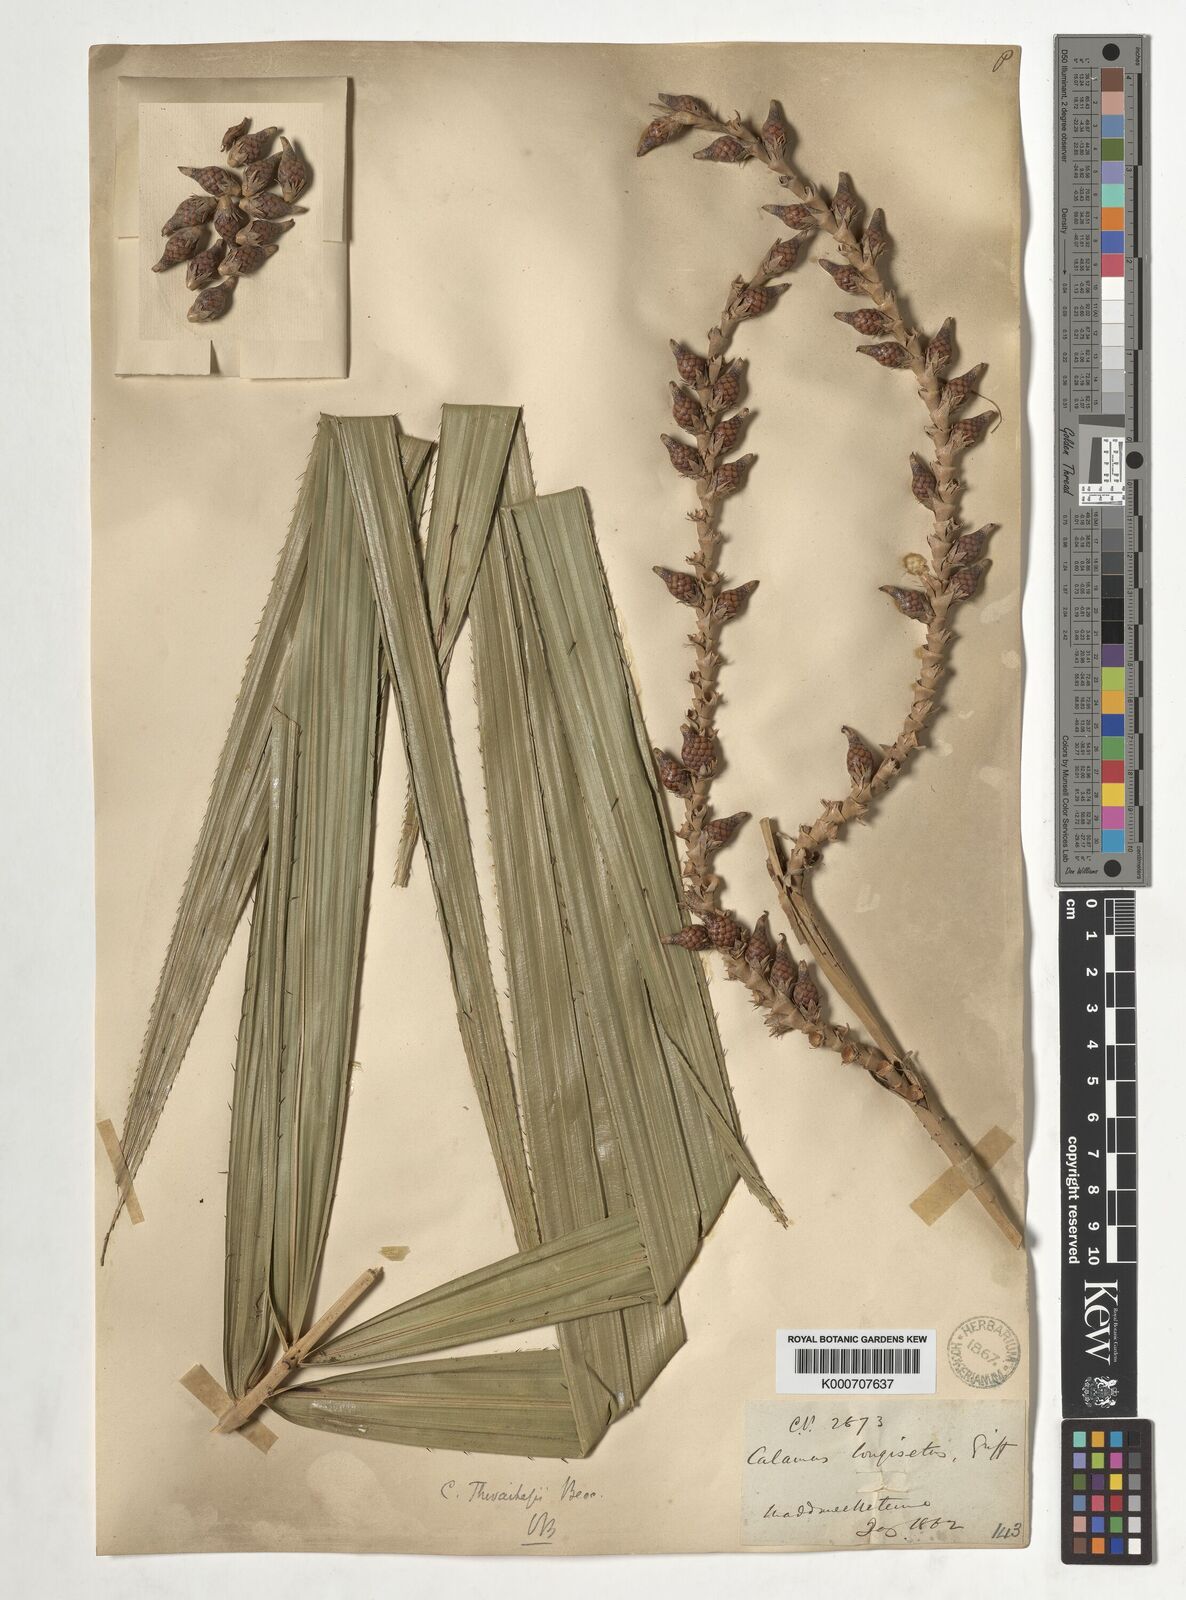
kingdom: Plantae
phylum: Tracheophyta
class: Liliopsida
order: Arecales
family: Arecaceae
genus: Calamus
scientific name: Calamus thwaitesii
